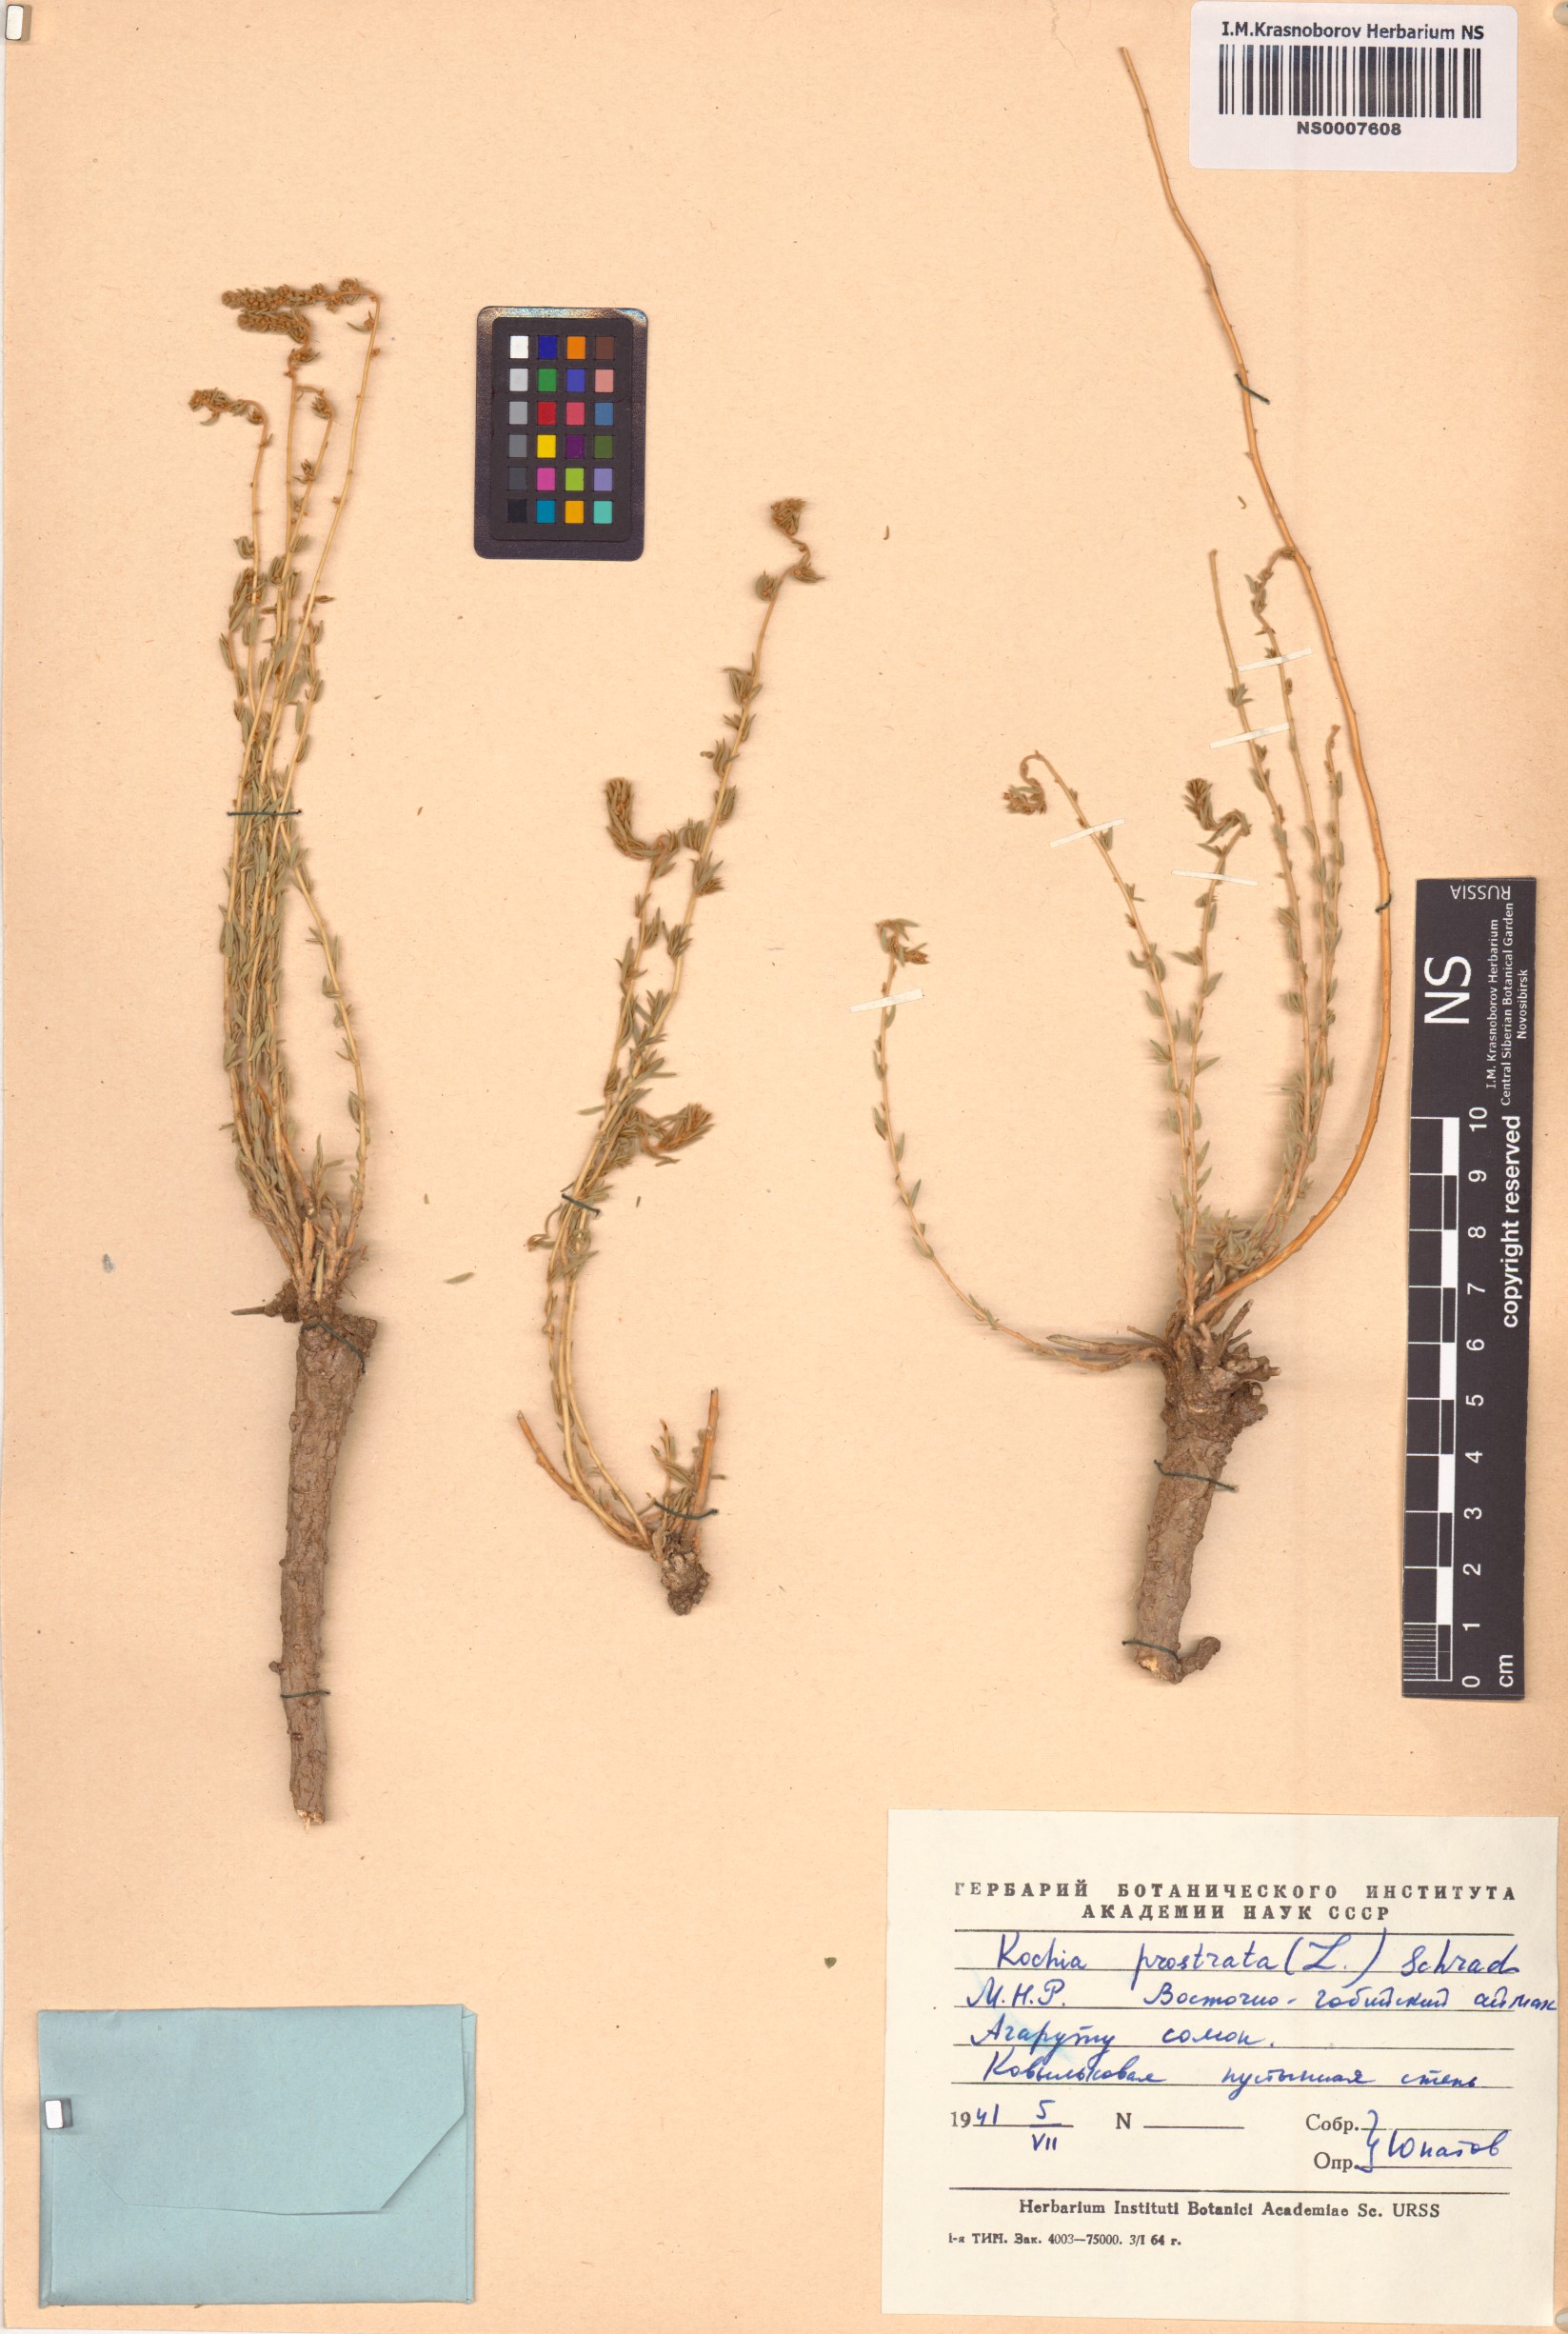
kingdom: Plantae
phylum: Tracheophyta
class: Magnoliopsida
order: Caryophyllales
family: Amaranthaceae
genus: Bassia
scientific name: Bassia prostrata
